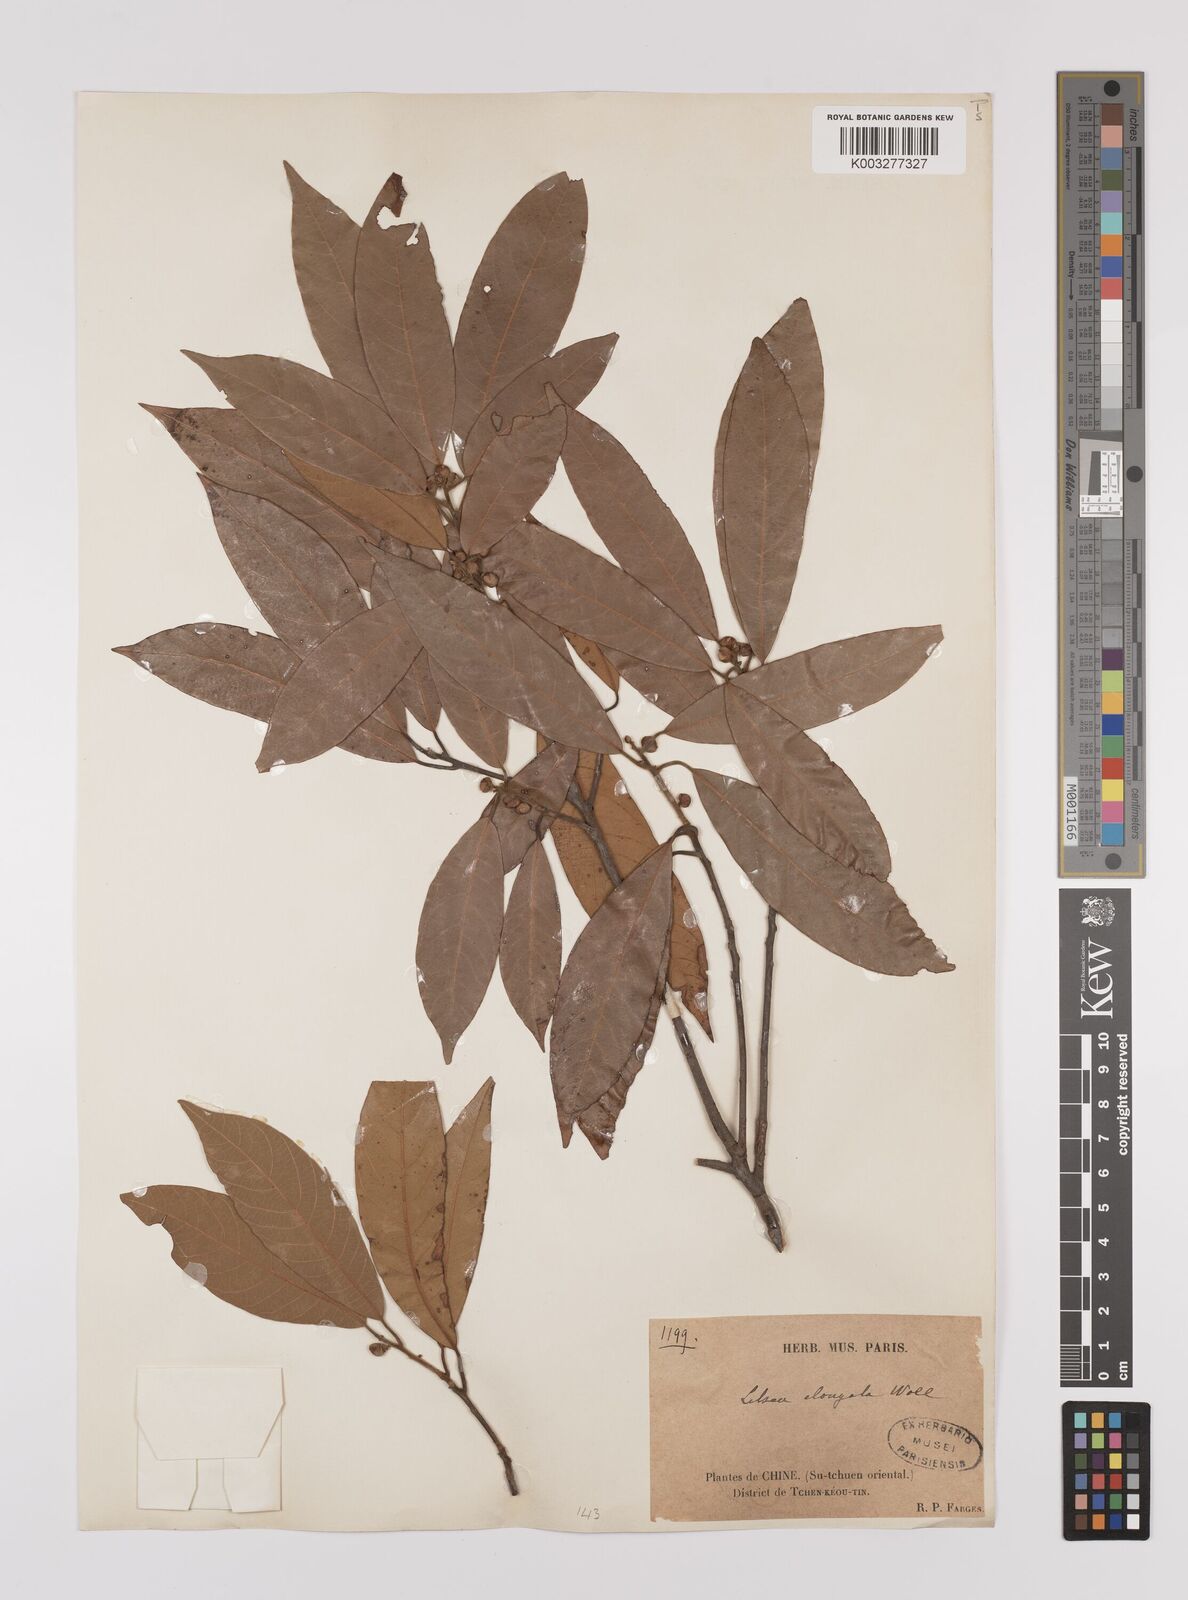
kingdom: Plantae
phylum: Tracheophyta
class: Magnoliopsida
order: Laurales
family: Lauraceae
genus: Litsea
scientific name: Litsea elongata
